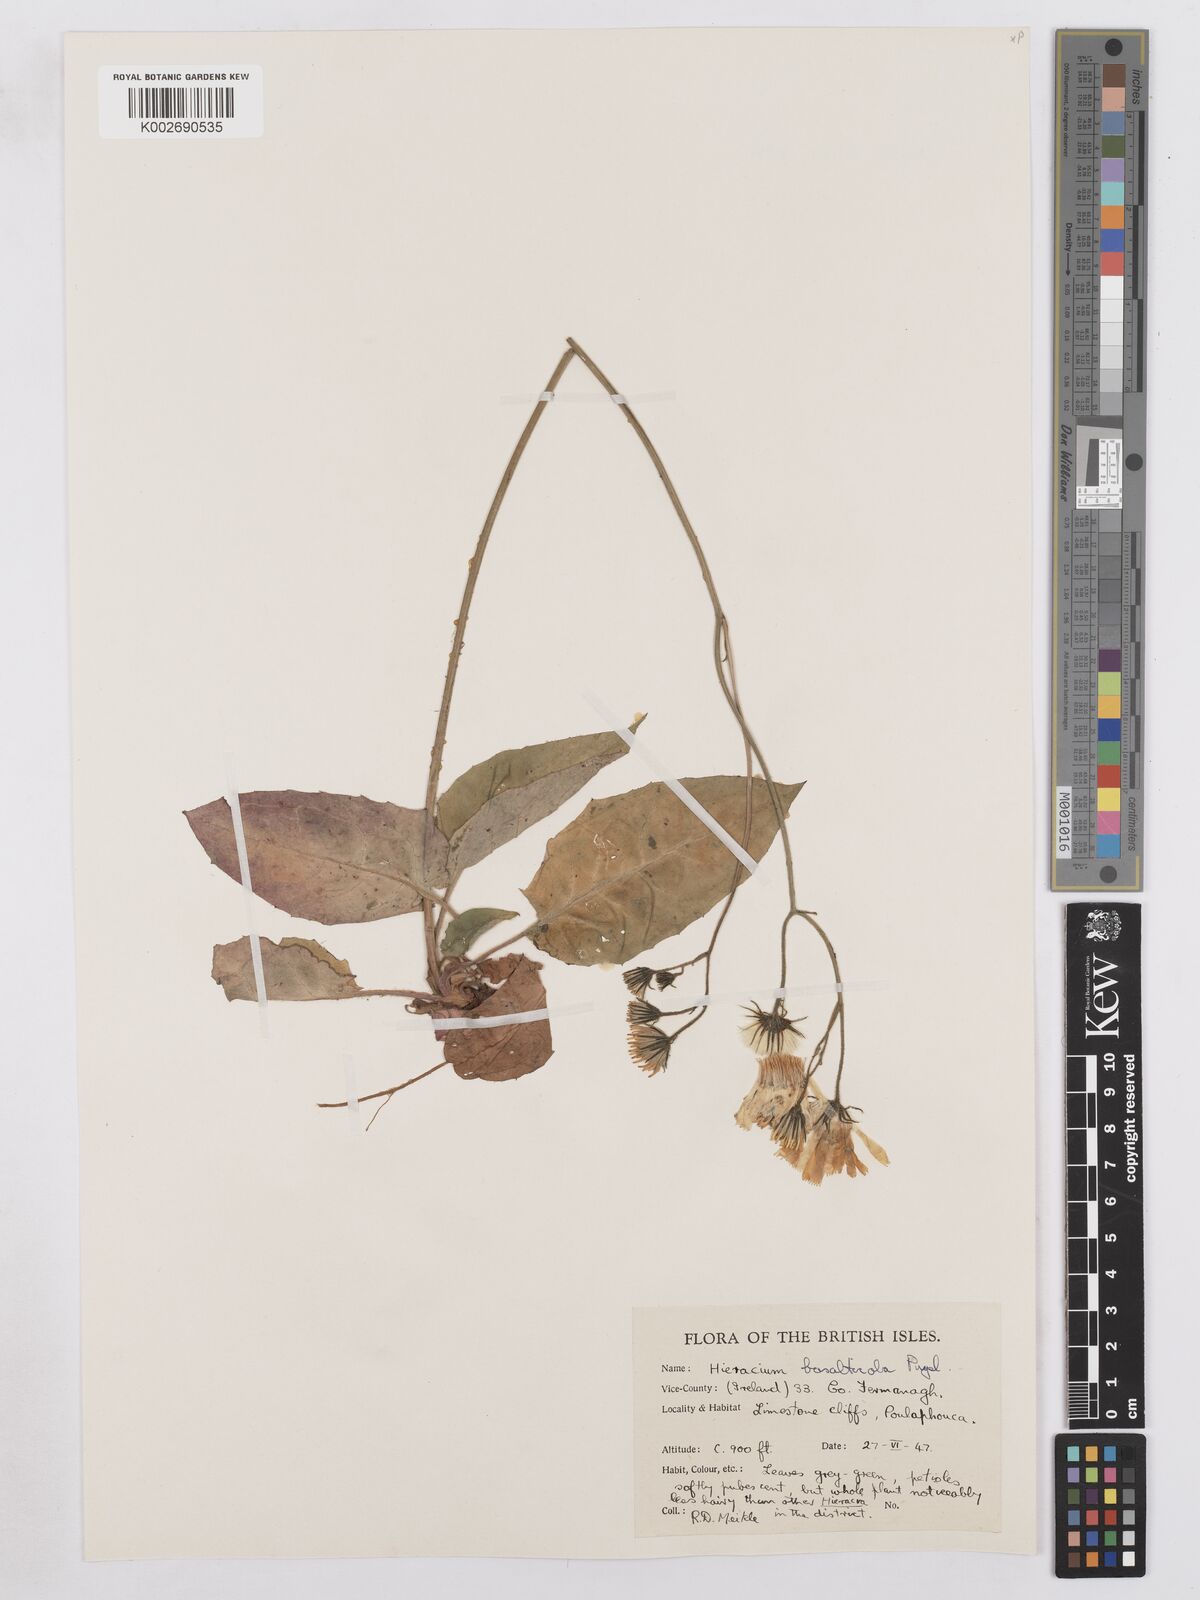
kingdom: Plantae
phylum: Tracheophyta
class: Magnoliopsida
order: Asterales
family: Asteraceae
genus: Hieracium
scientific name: Hieracium basalticola
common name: Basalt hawkweed
